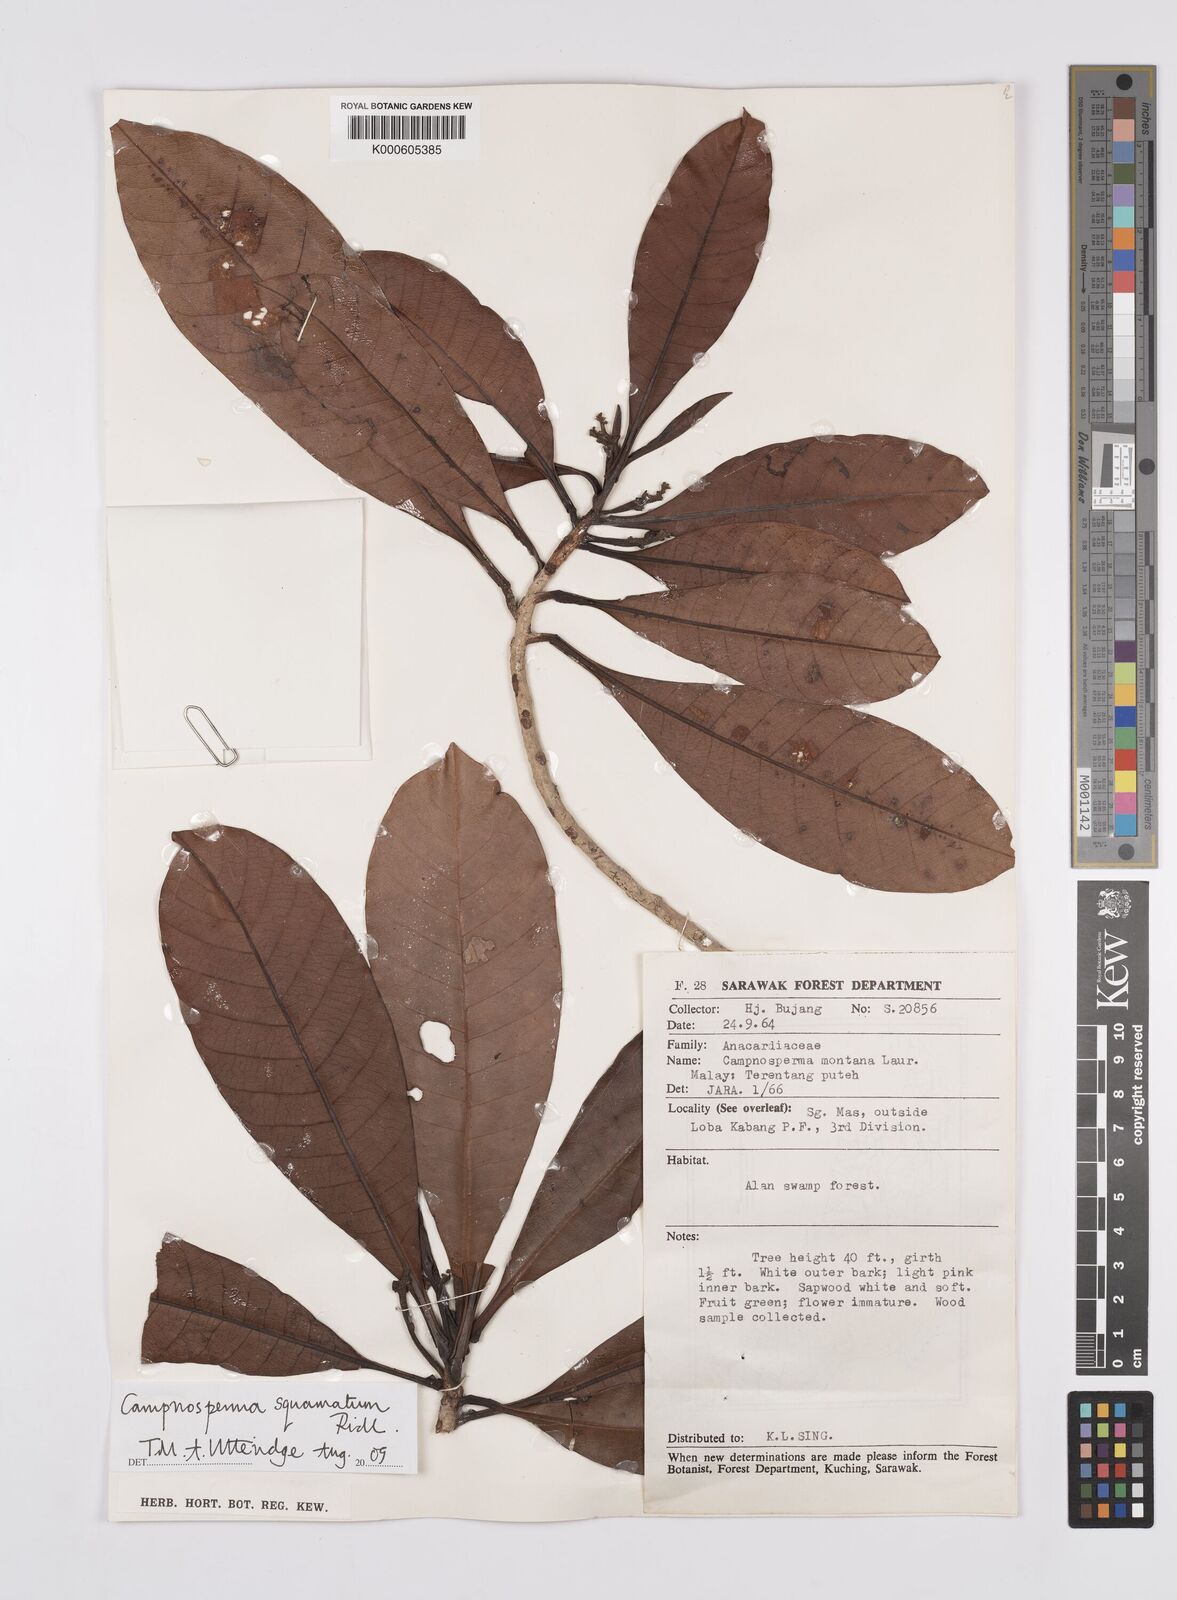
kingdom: Plantae
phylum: Tracheophyta
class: Magnoliopsida
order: Sapindales
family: Anacardiaceae
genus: Campnosperma
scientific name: Campnosperma
